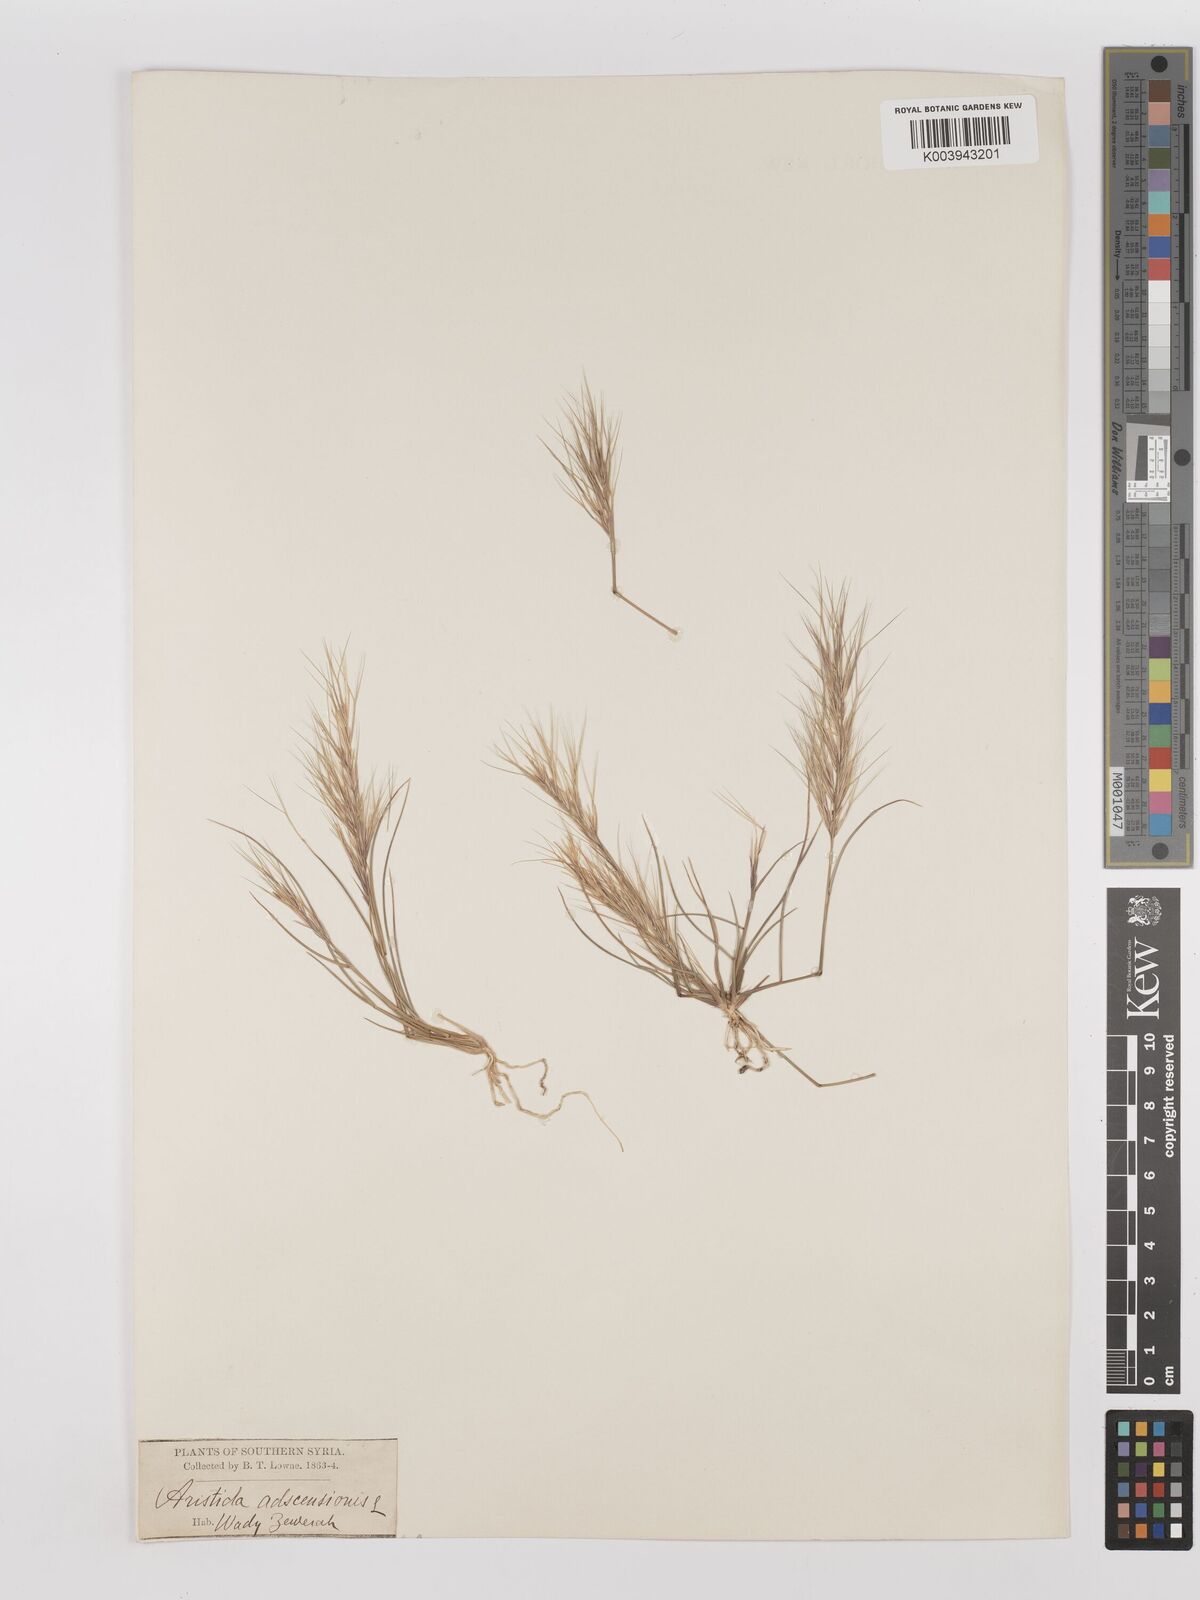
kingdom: Plantae
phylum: Tracheophyta
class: Liliopsida
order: Poales
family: Poaceae
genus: Aristida
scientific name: Aristida
